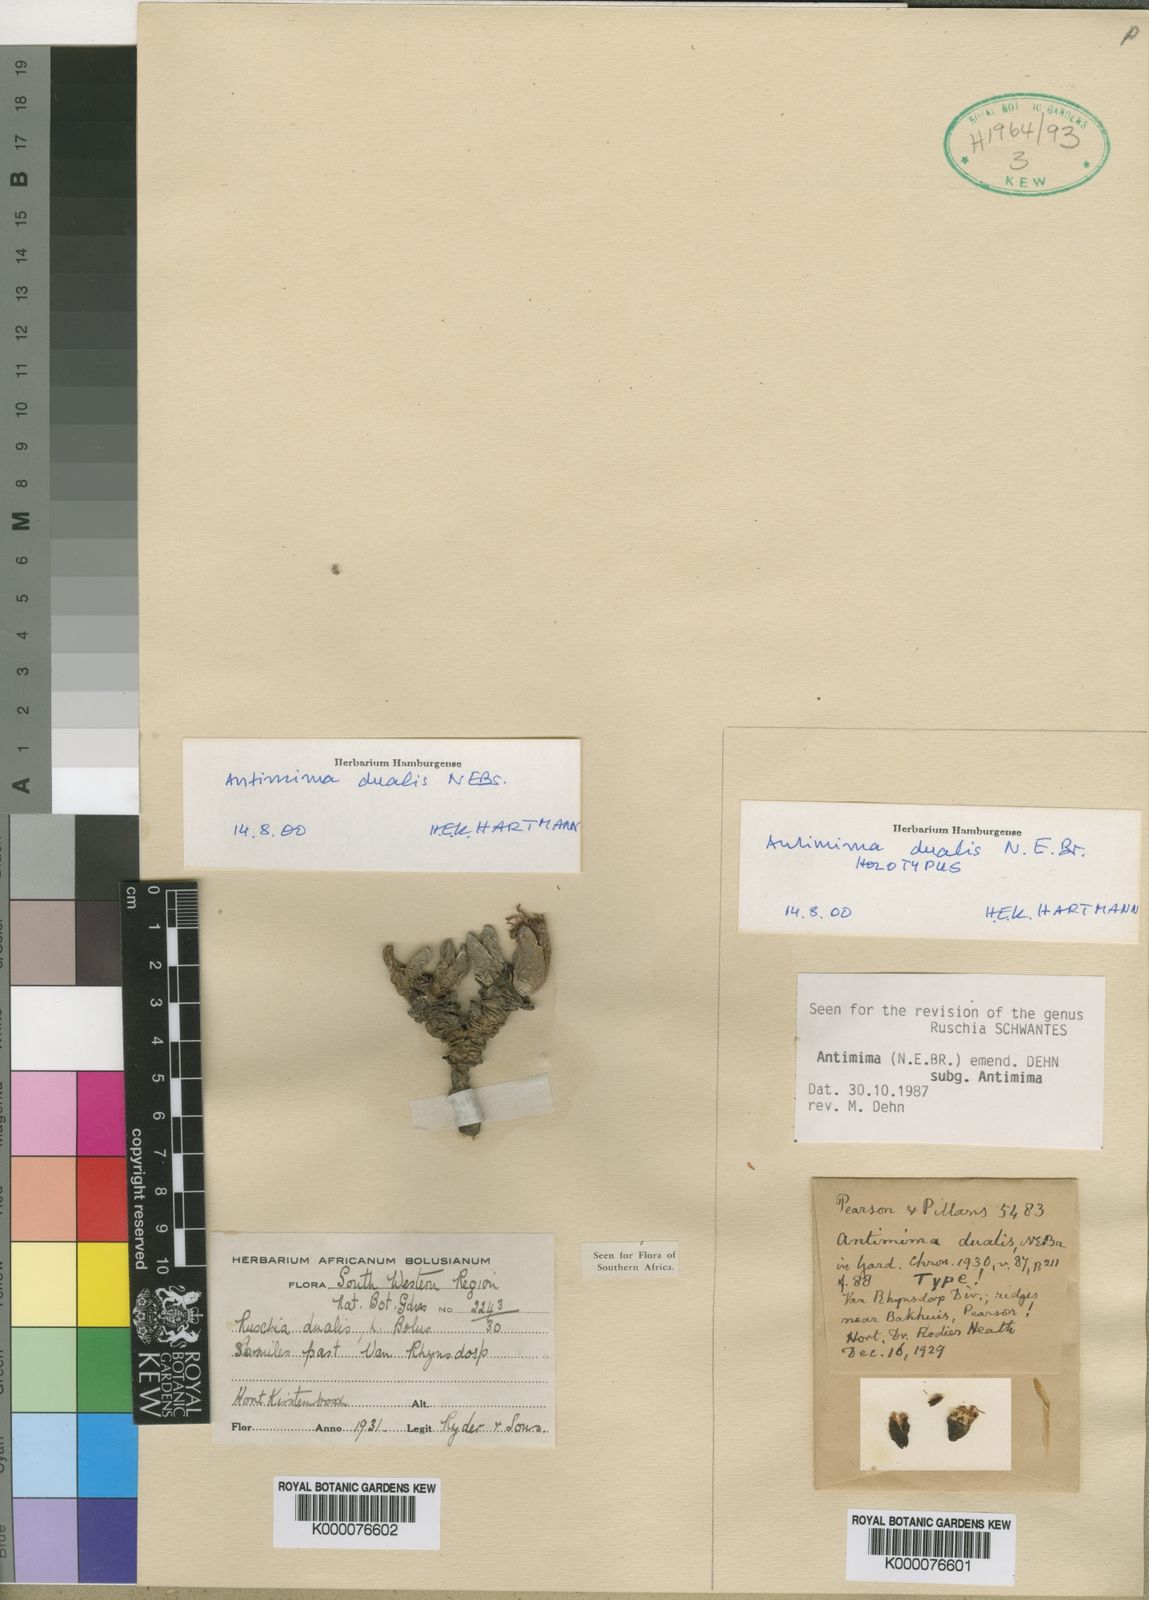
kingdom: Plantae
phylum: Tracheophyta
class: Magnoliopsida
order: Caryophyllales
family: Aizoaceae
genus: Antimima
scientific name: Antimima dualis
